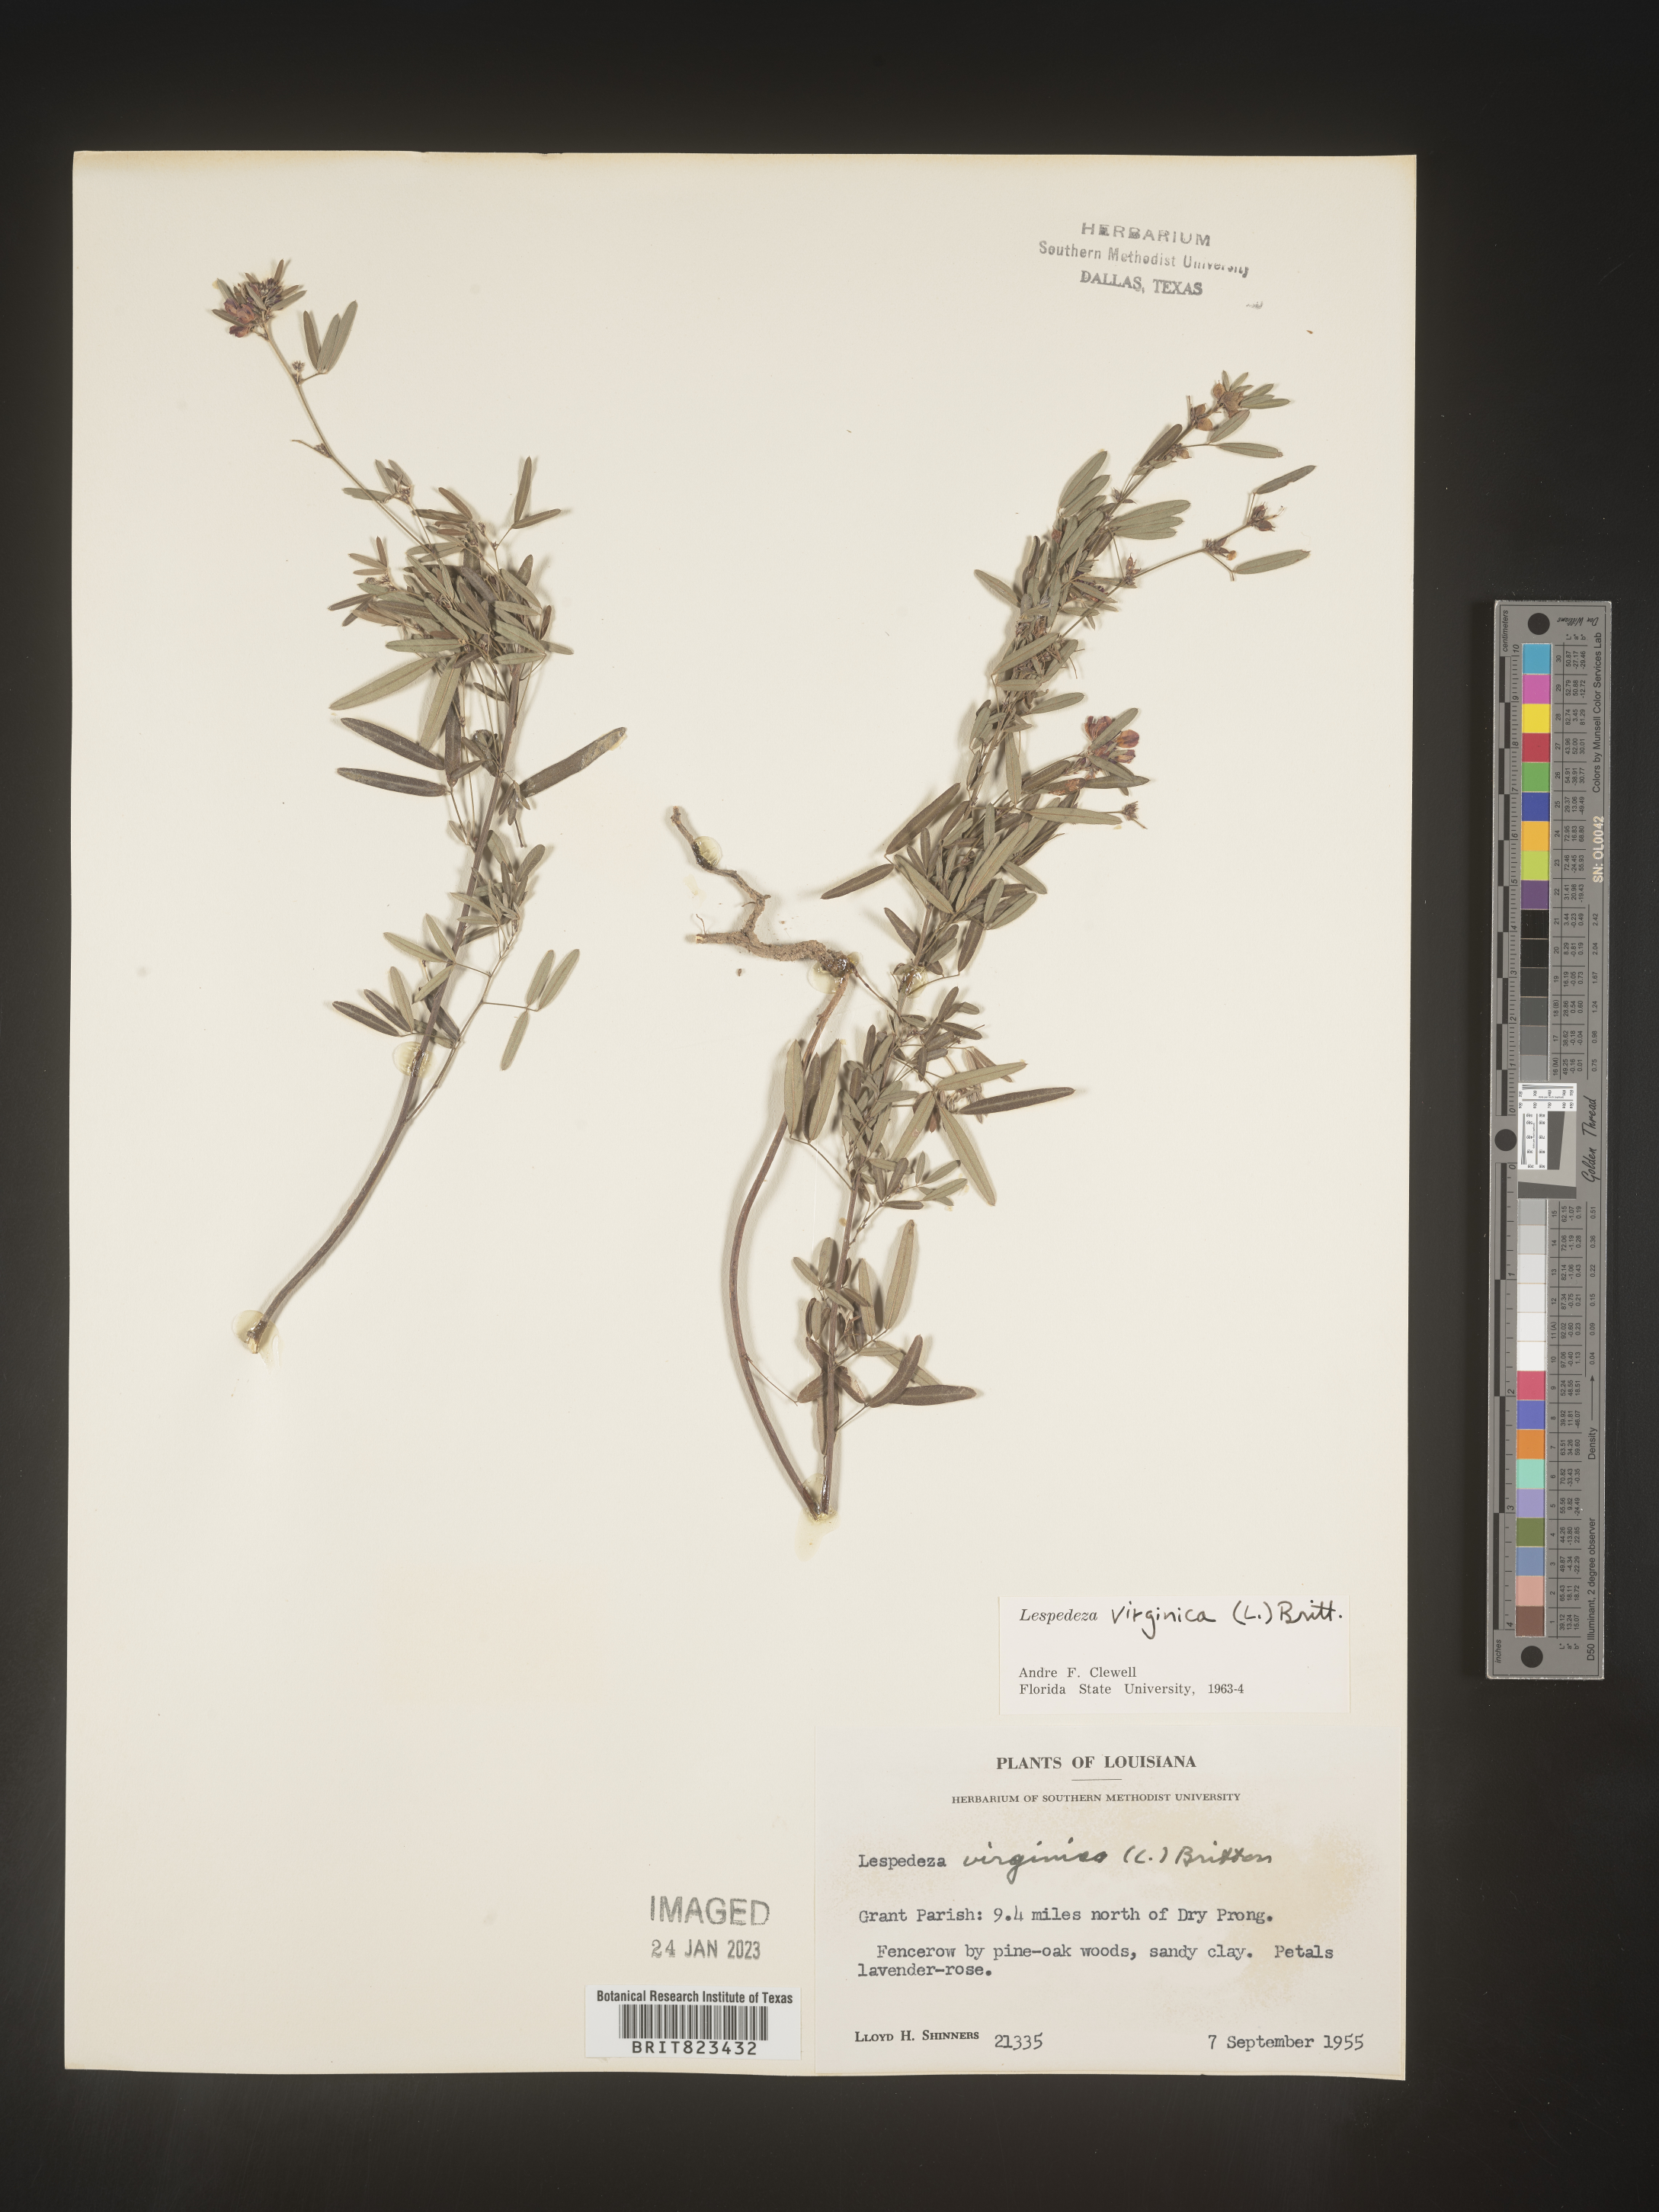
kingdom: Plantae
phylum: Tracheophyta
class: Magnoliopsida
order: Fabales
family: Fabaceae
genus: Lespedeza
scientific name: Lespedeza virginica
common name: Slender bush-clover
